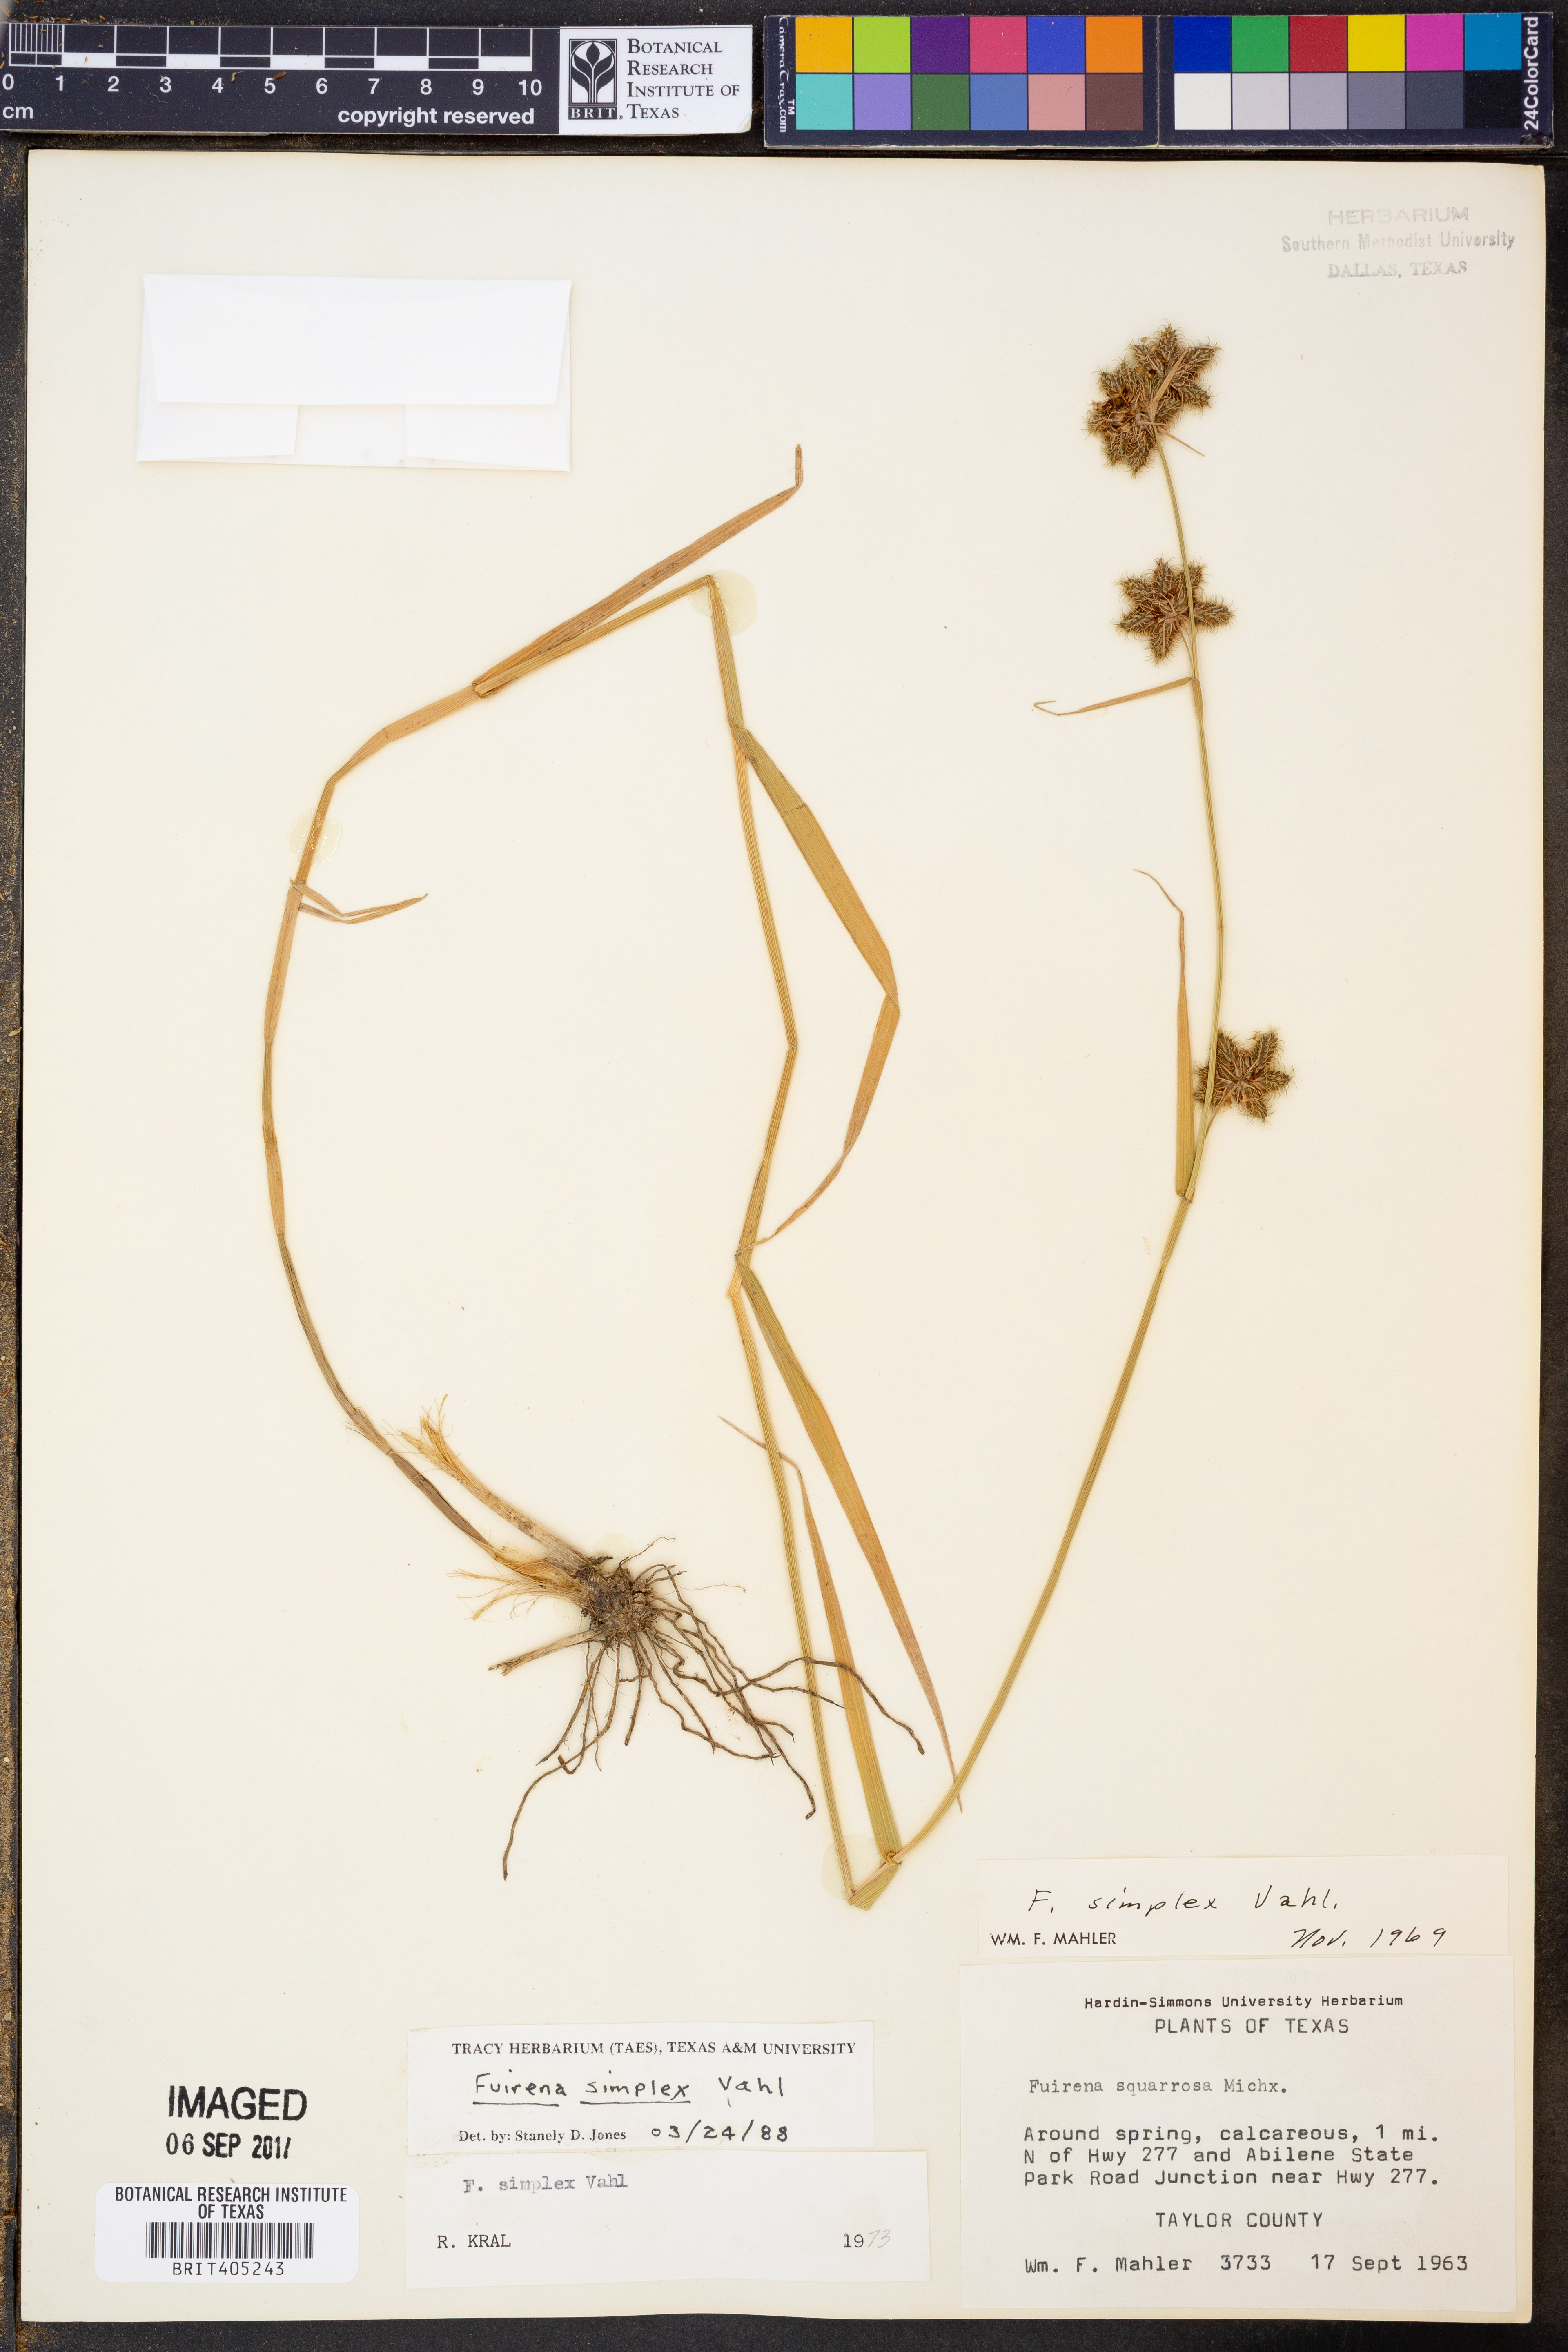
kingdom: Plantae
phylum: Tracheophyta
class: Liliopsida
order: Poales
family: Cyperaceae
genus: Fuirena
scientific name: Fuirena simplex
